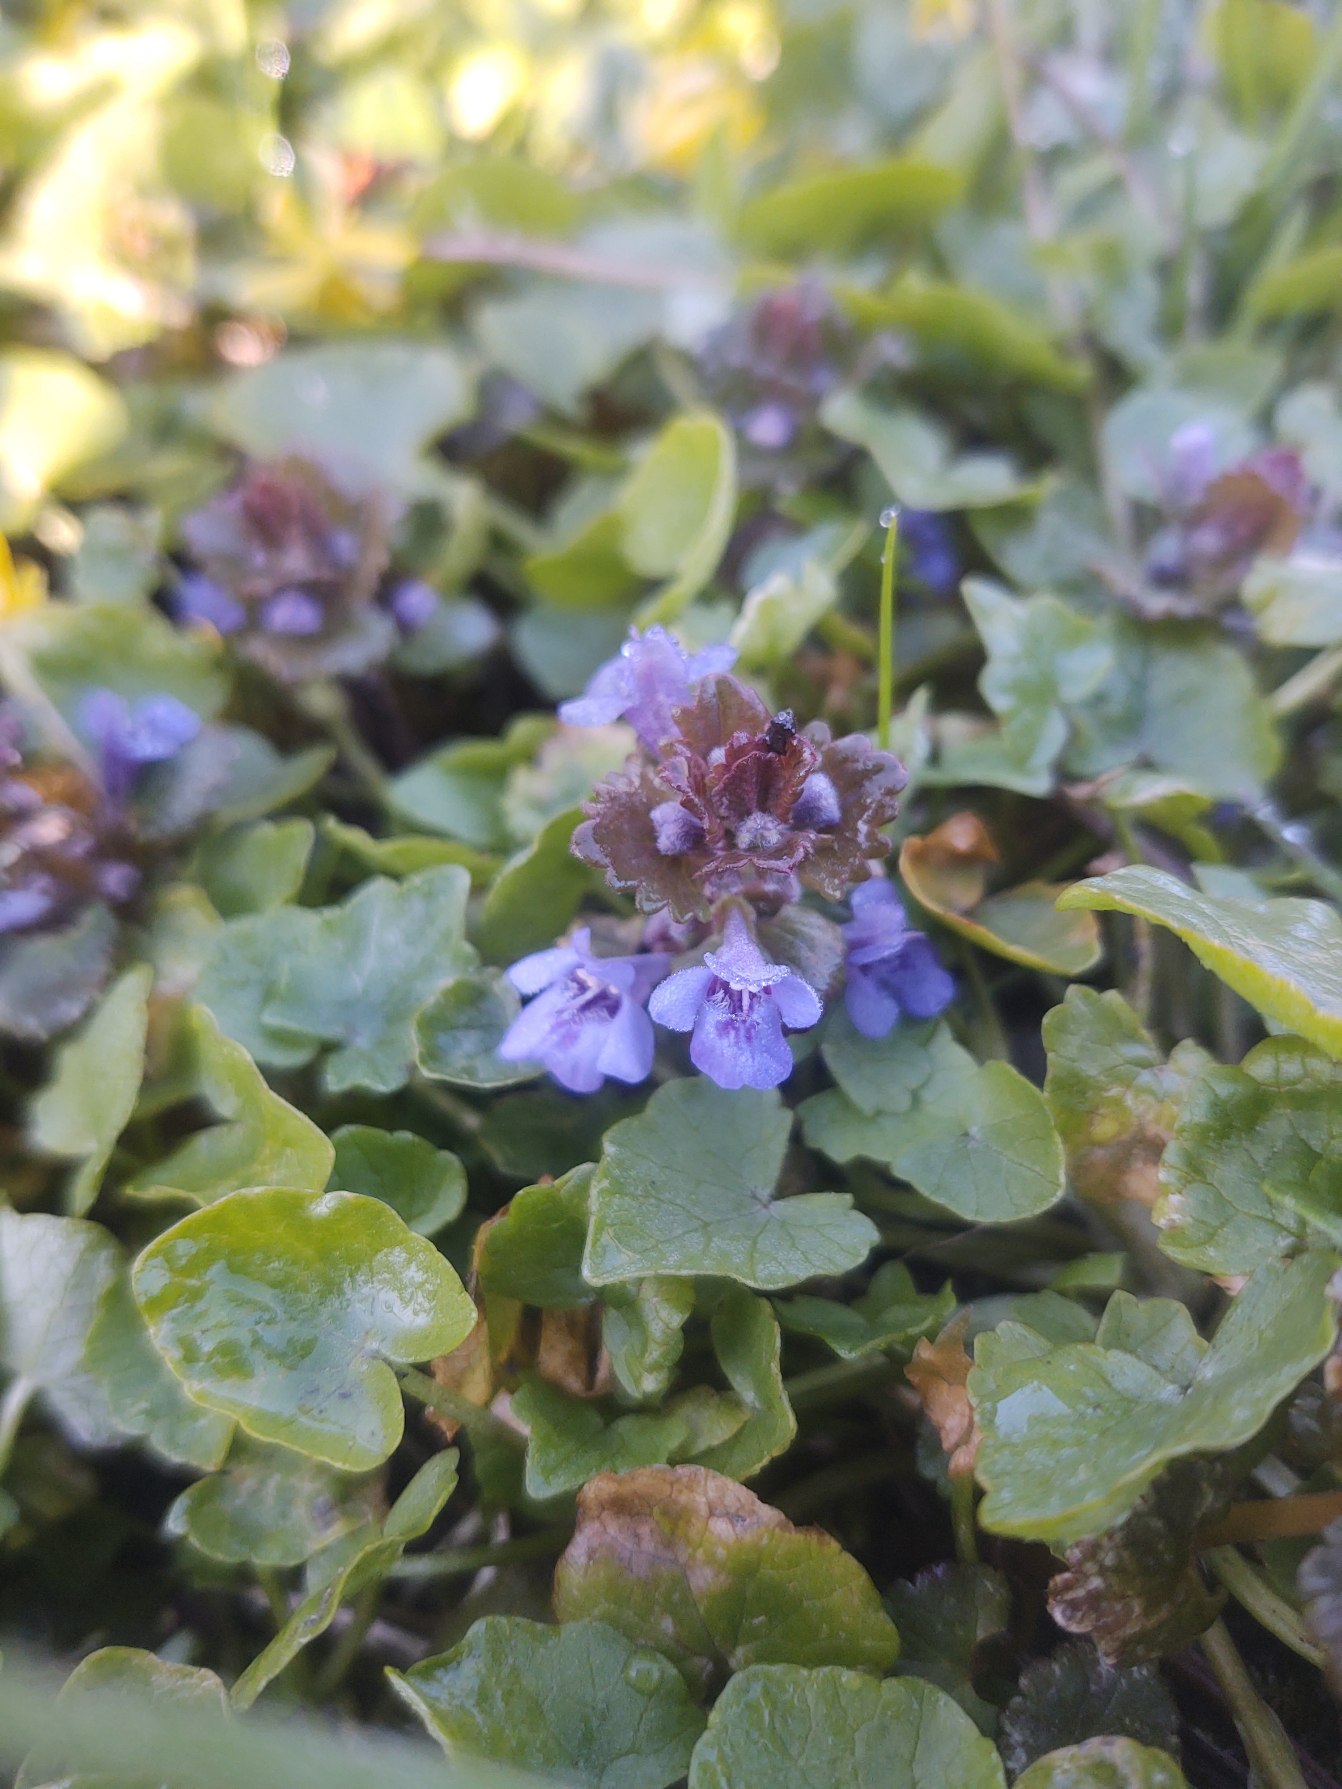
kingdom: Plantae
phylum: Tracheophyta
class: Magnoliopsida
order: Lamiales
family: Lamiaceae
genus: Glechoma
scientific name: Glechoma hederacea
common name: Korsknap
